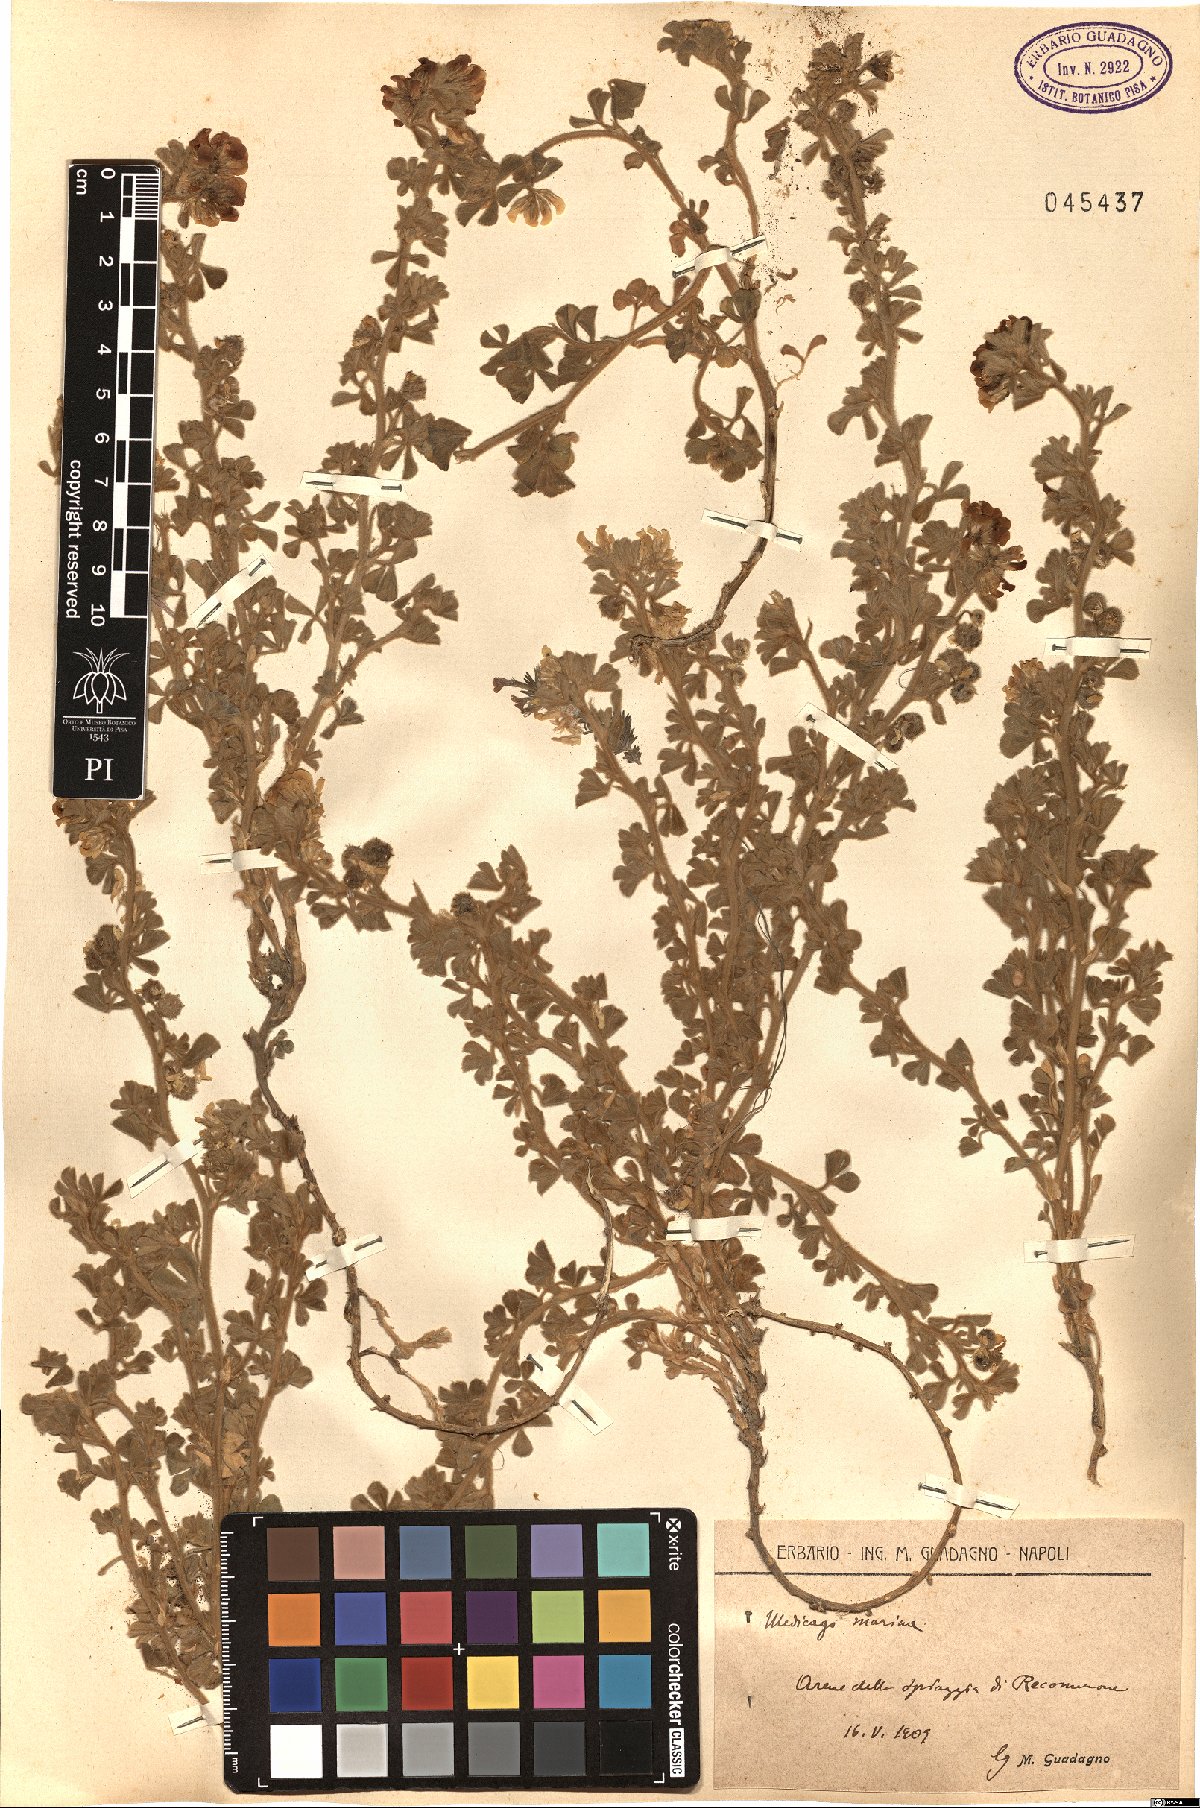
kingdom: Plantae
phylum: Tracheophyta
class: Magnoliopsida
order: Fabales
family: Fabaceae
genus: Medicago
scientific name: Medicago marina
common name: Sea medick
